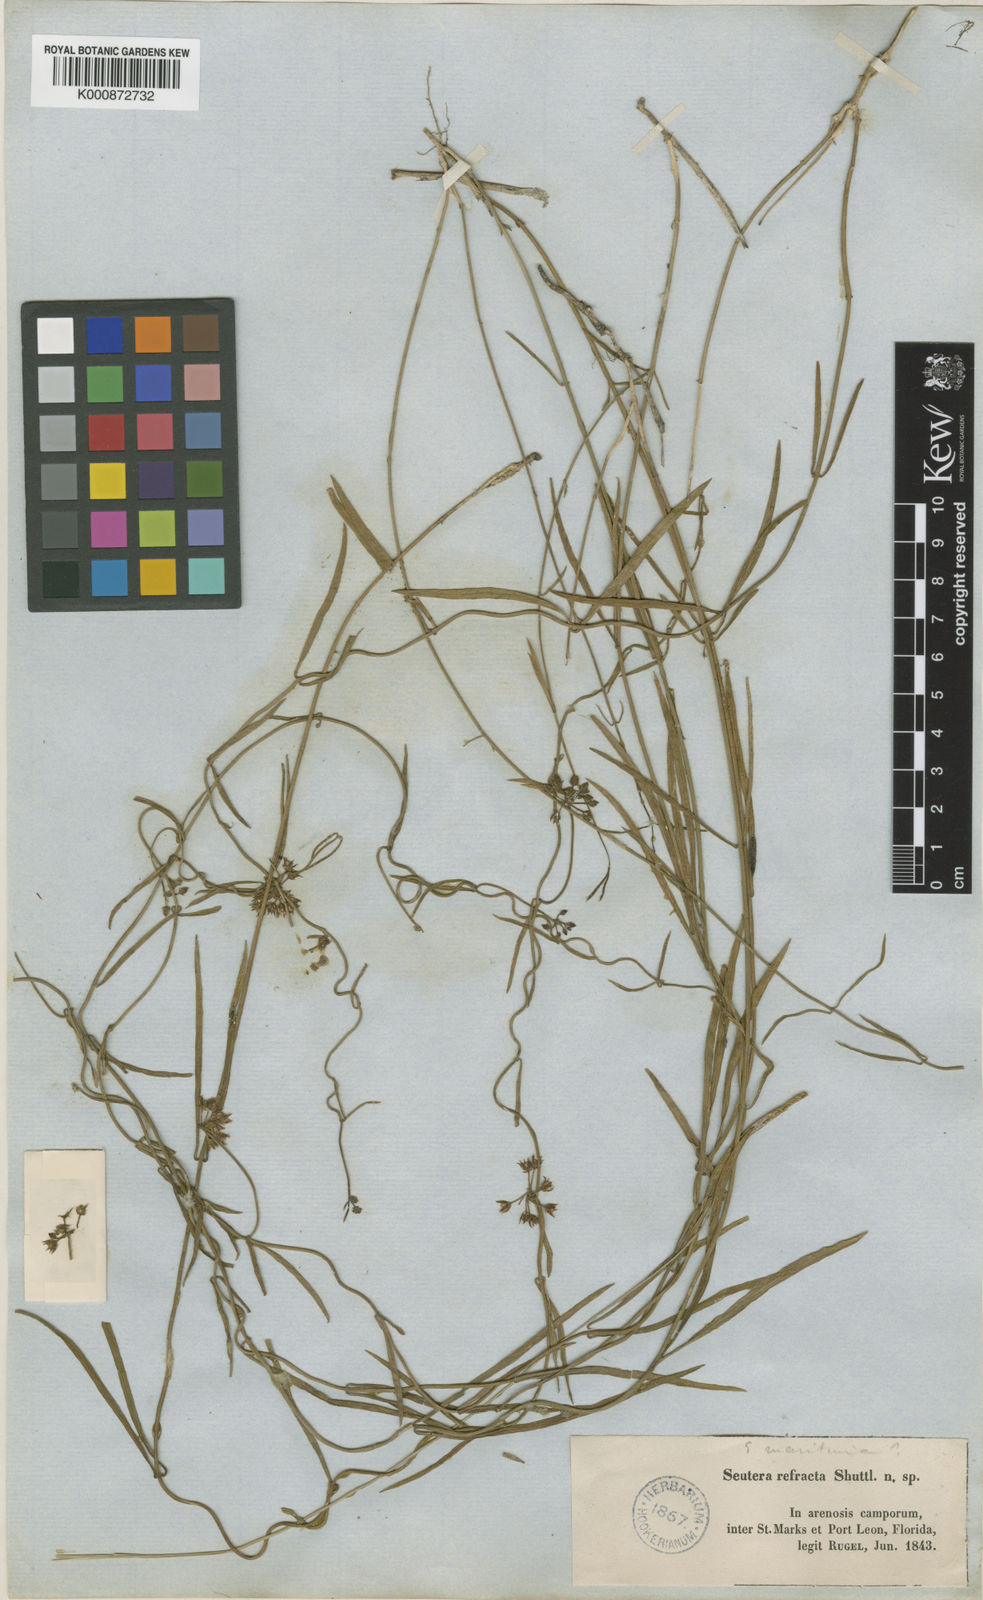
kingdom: Plantae
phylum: Tracheophyta
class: Magnoliopsida
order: Gentianales
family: Apocynaceae
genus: Pattalias
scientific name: Pattalias palustris
